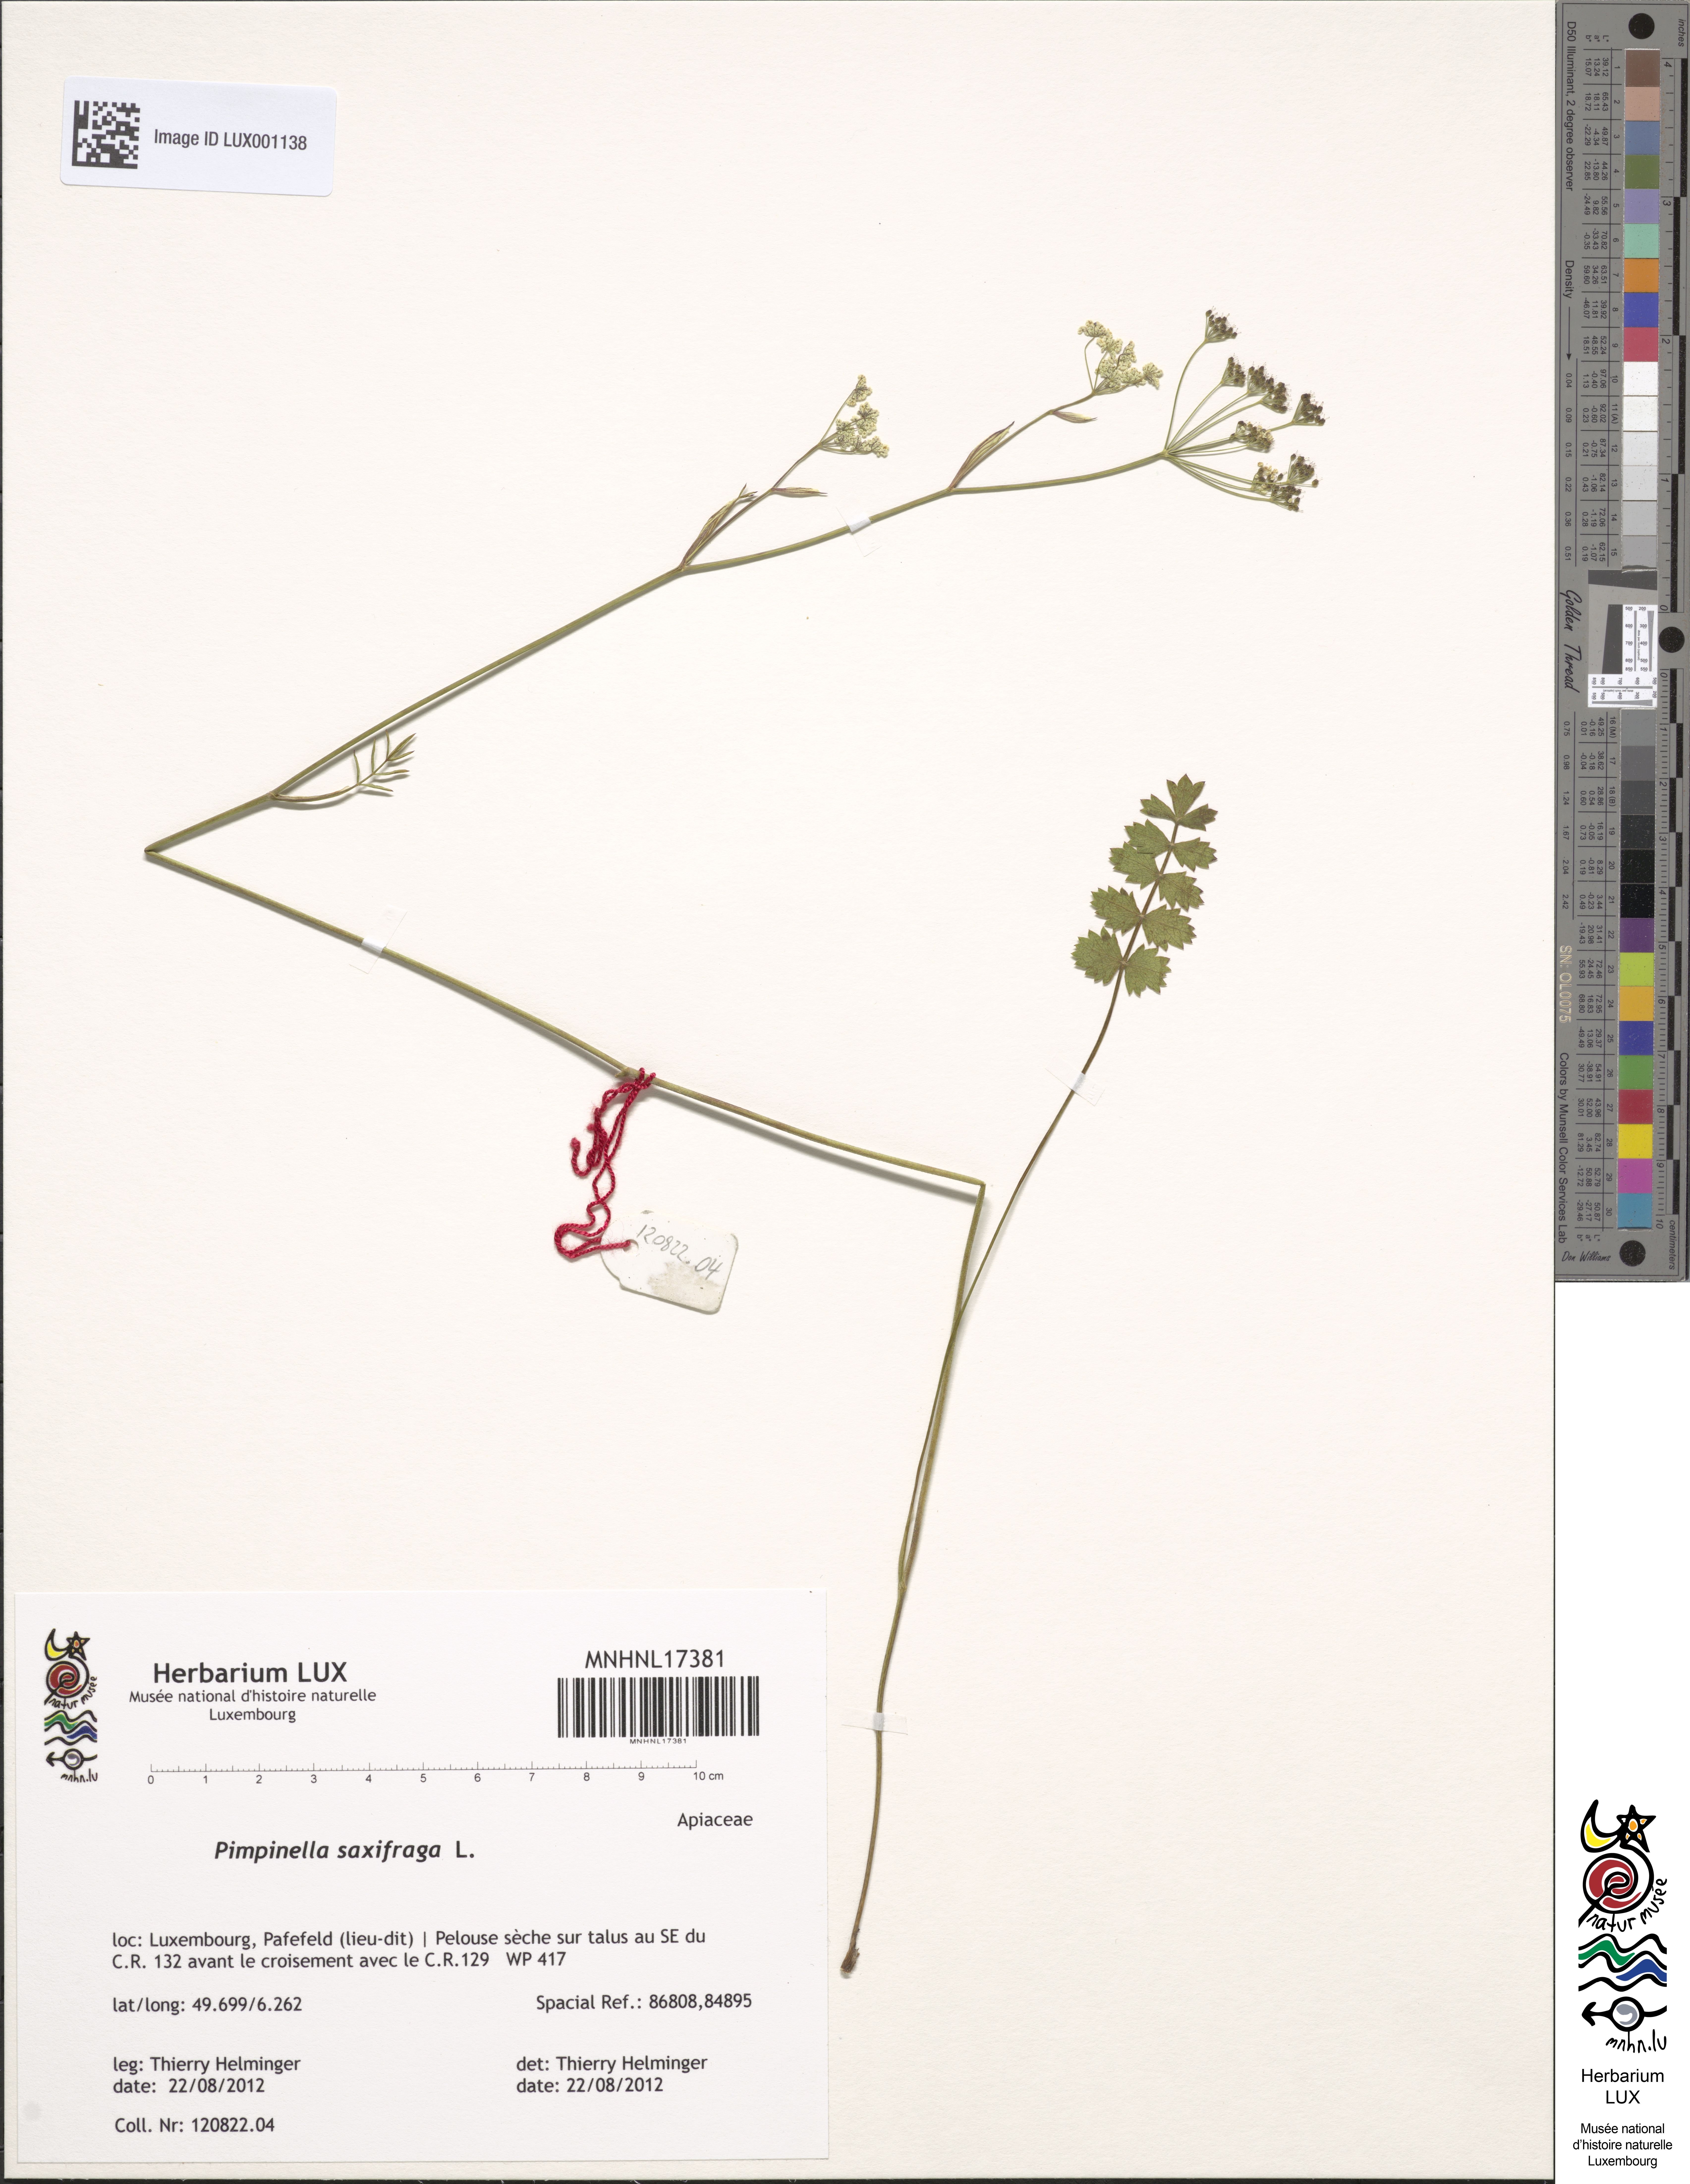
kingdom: Plantae
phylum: Tracheophyta
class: Magnoliopsida
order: Apiales
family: Apiaceae
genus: Pimpinella
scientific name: Pimpinella saxifraga
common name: Burnet-saxifrage
